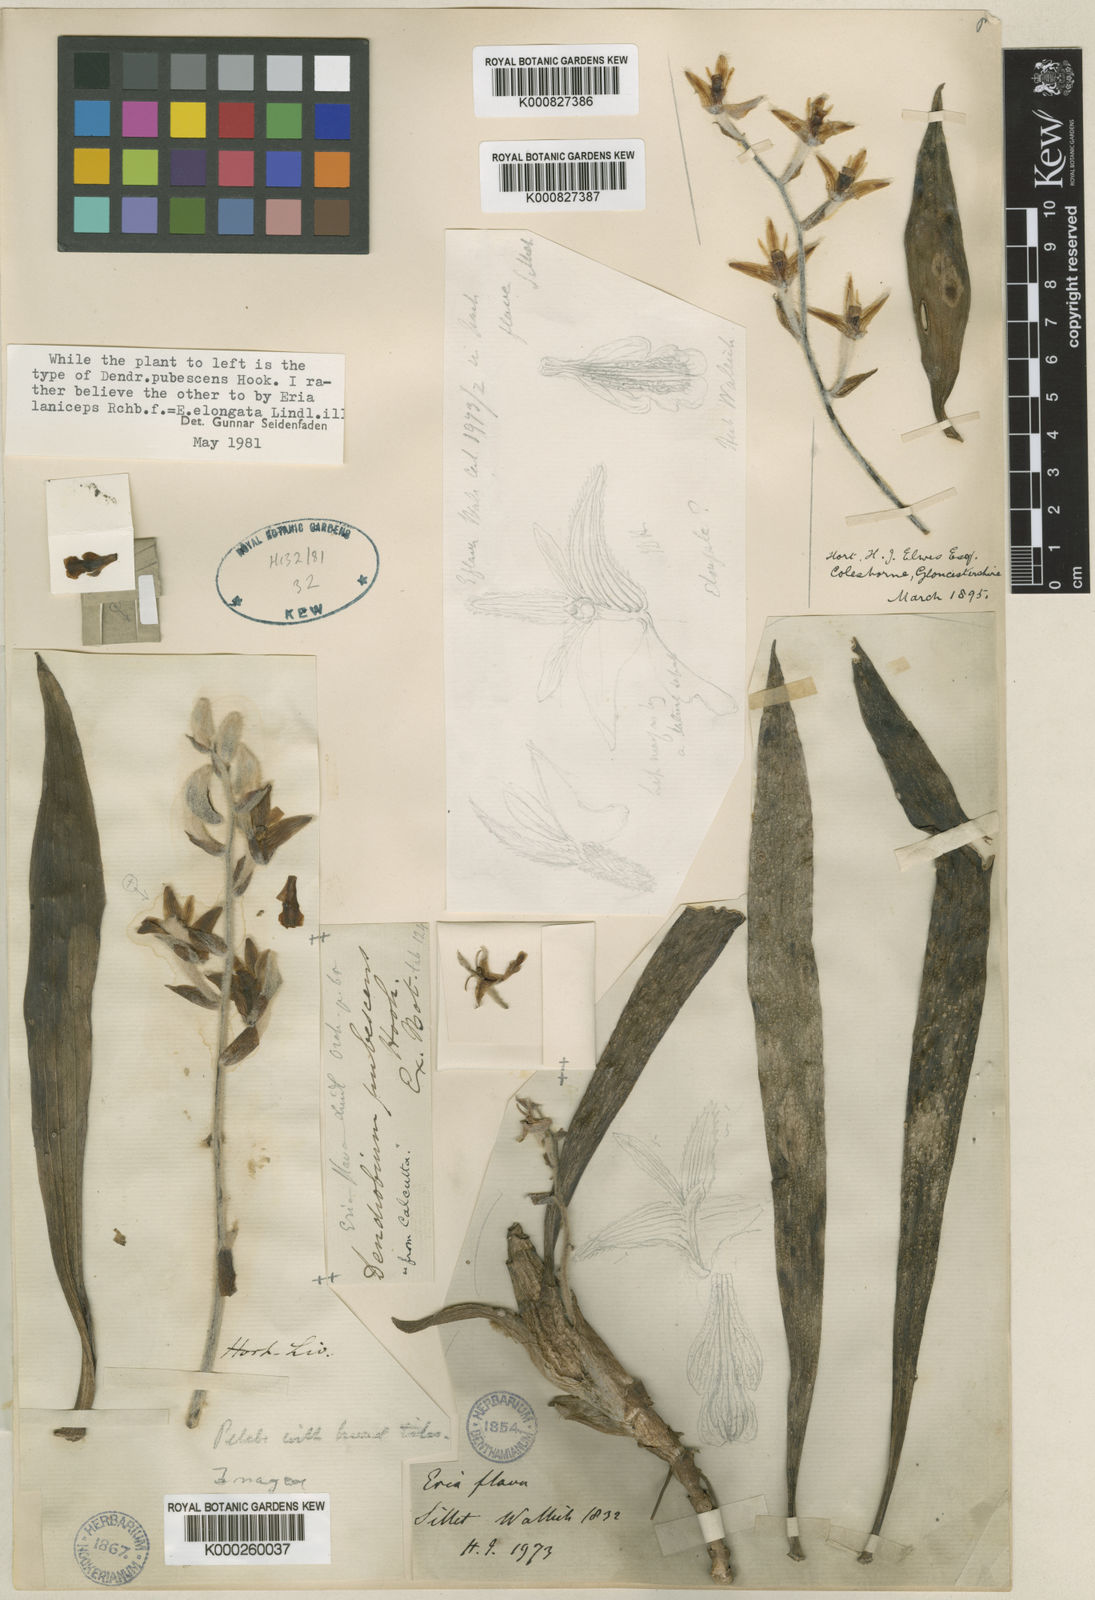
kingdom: Plantae
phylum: Tracheophyta
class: Liliopsida
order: Asparagales
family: Orchidaceae
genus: Dendrolirium
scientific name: Dendrolirium lasiopetalum
